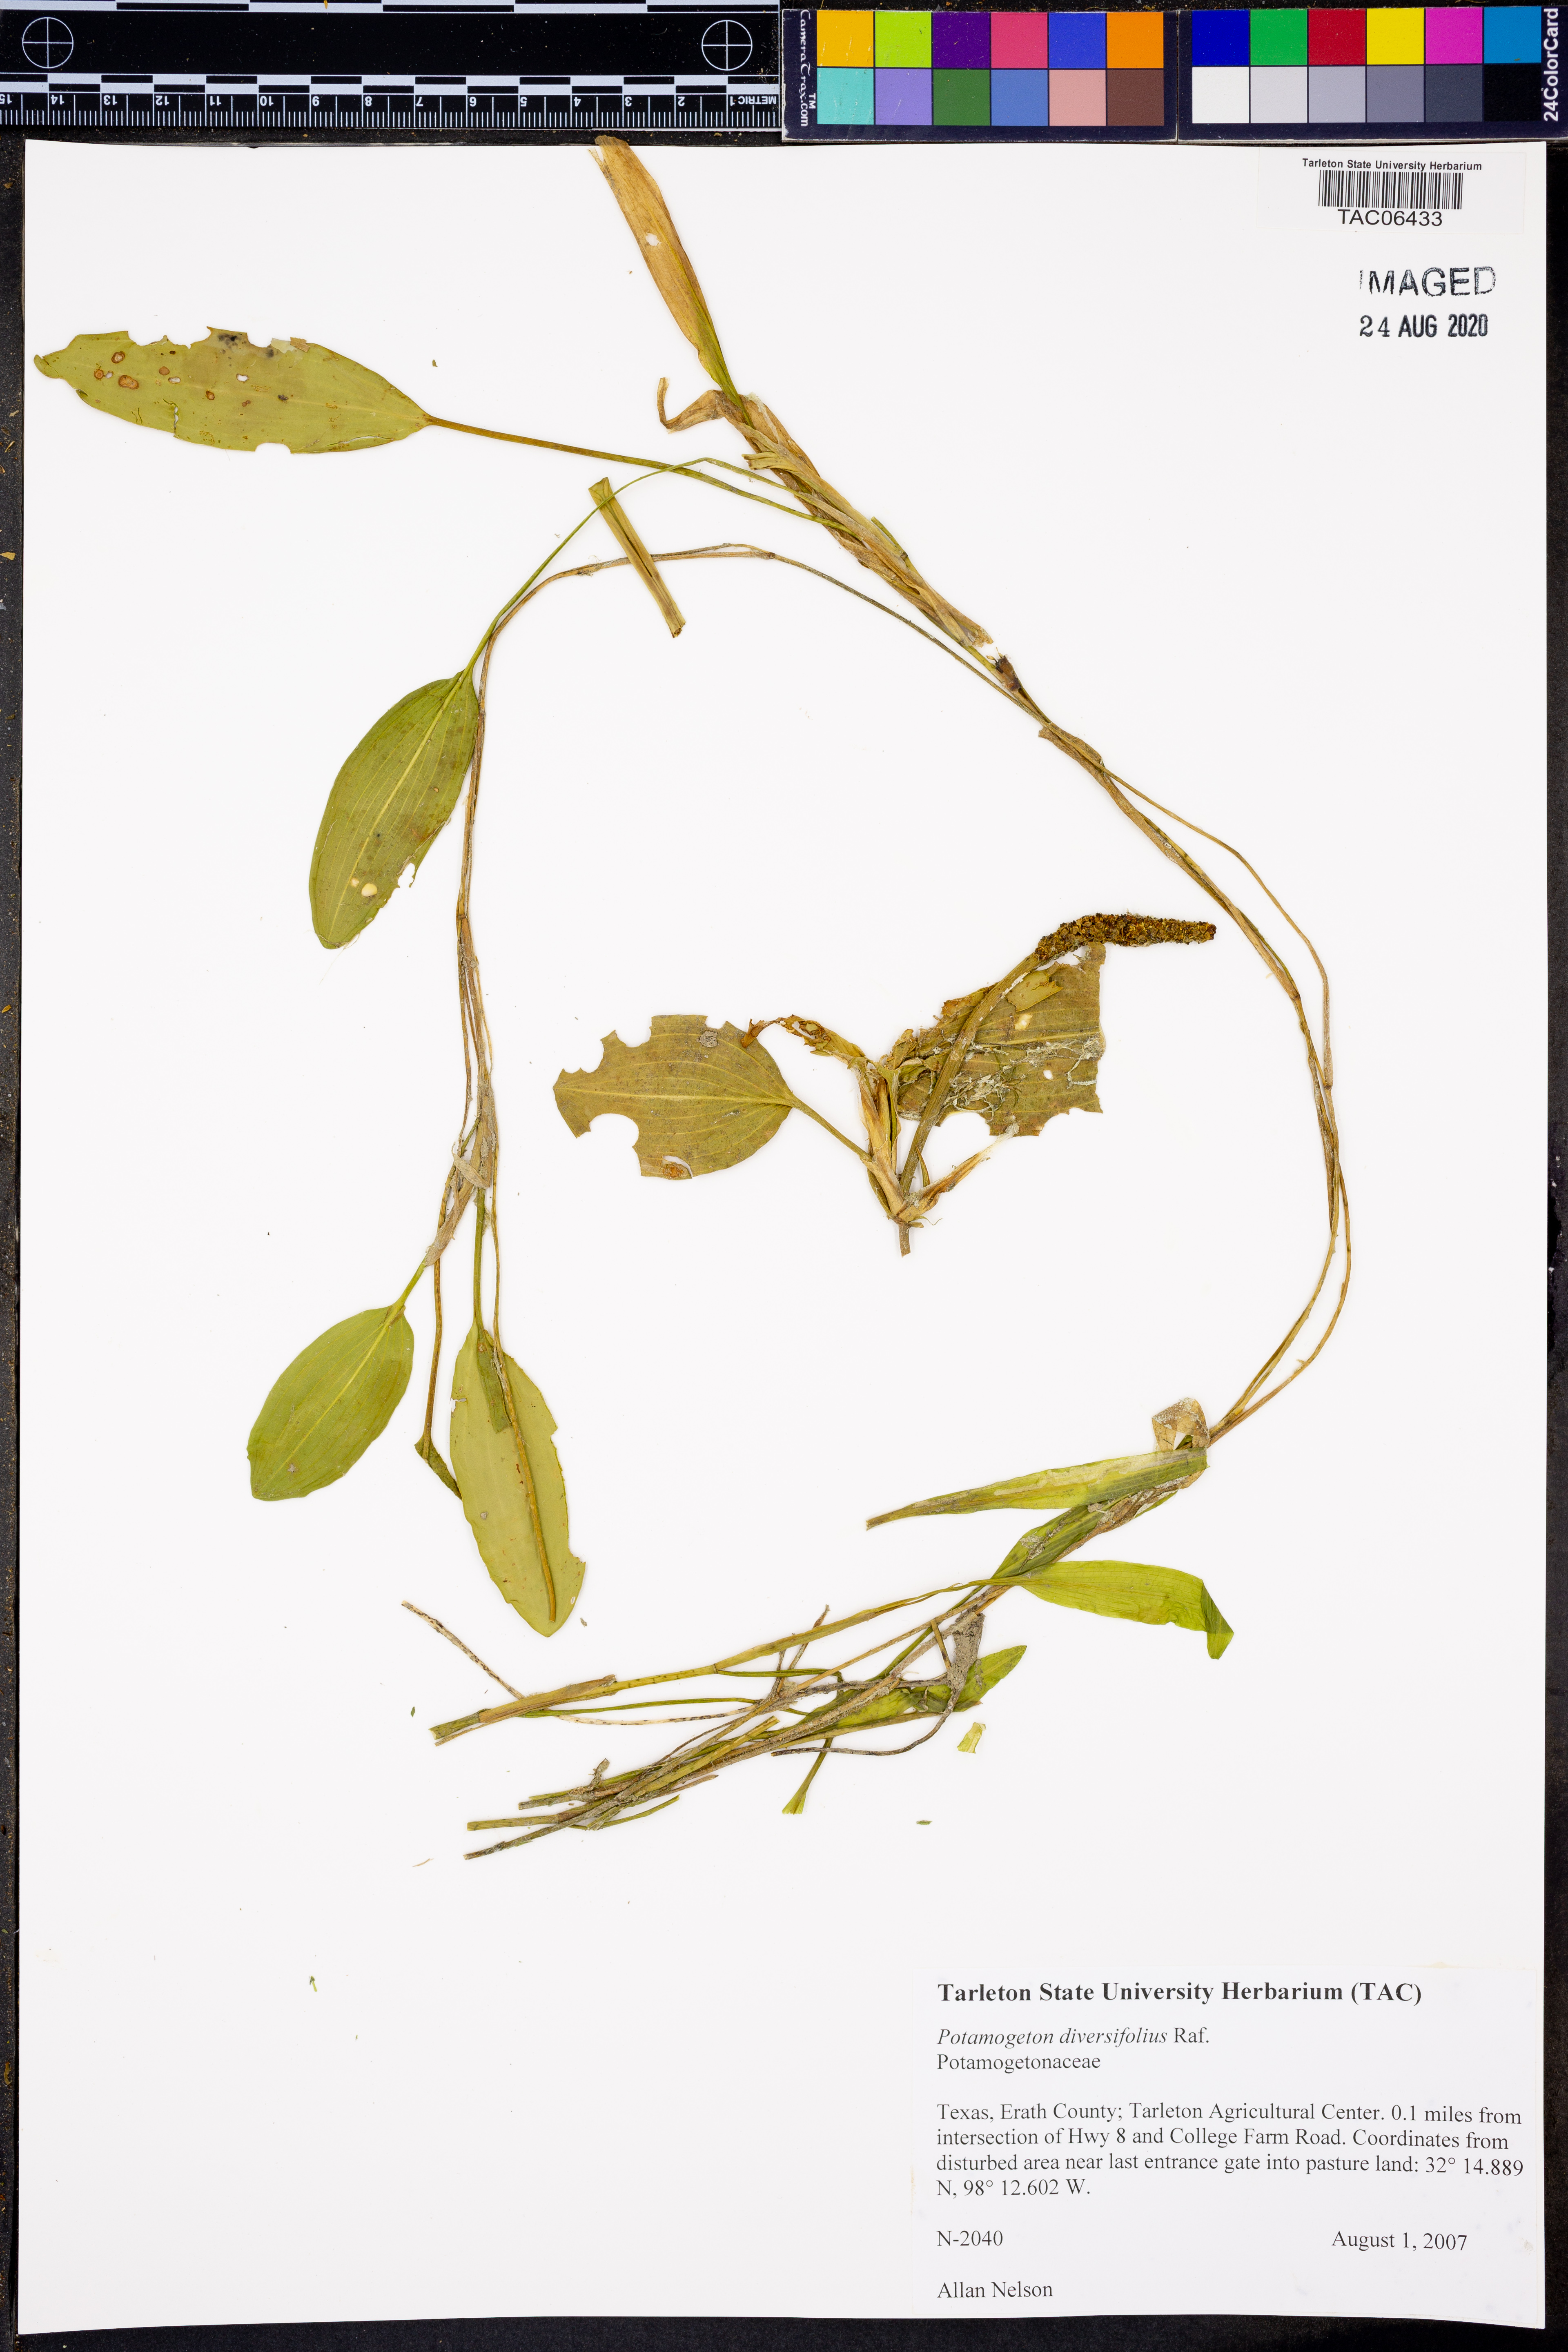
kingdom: Plantae
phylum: Tracheophyta
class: Liliopsida
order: Alismatales
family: Potamogetonaceae
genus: Potamogeton
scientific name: Potamogeton diversifolius
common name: Water-thread pondweed
